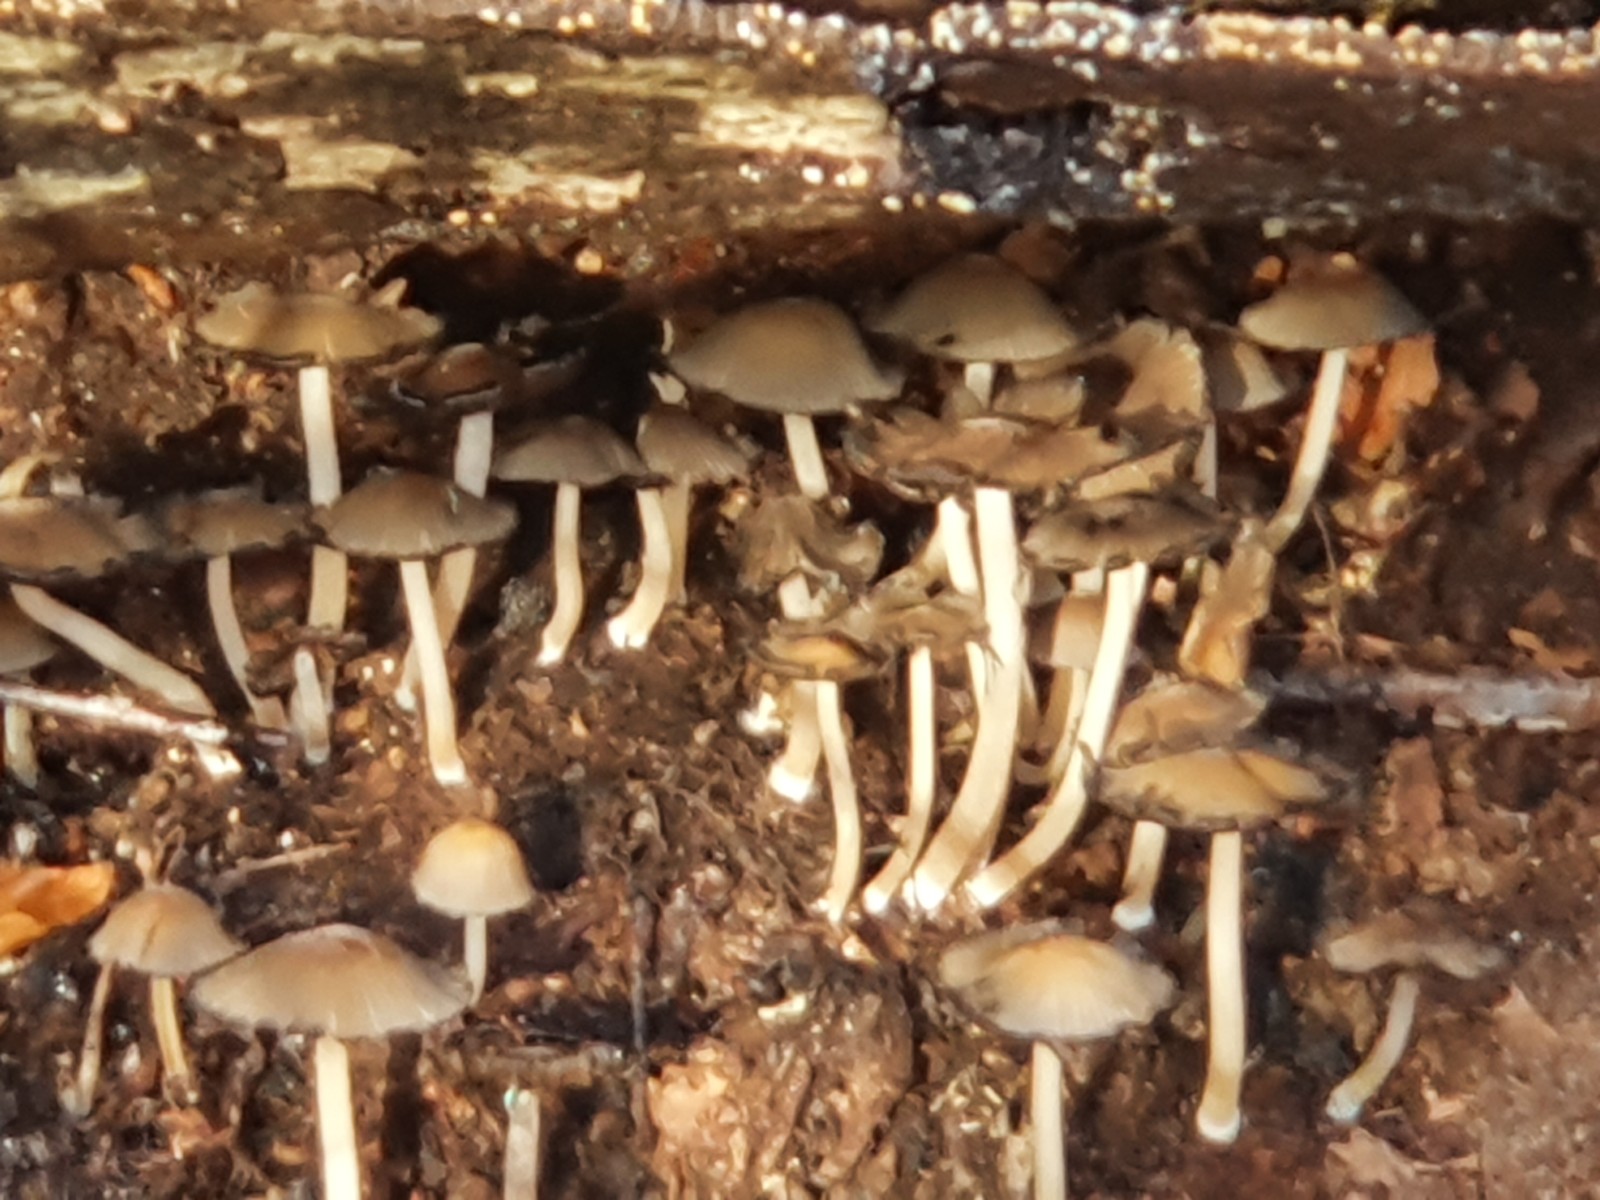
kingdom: Fungi
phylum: Basidiomycota
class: Agaricomycetes
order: Agaricales
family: Psathyrellaceae
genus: Psathyrella
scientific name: Psathyrella piluliformis
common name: lysstokket mørkhat
